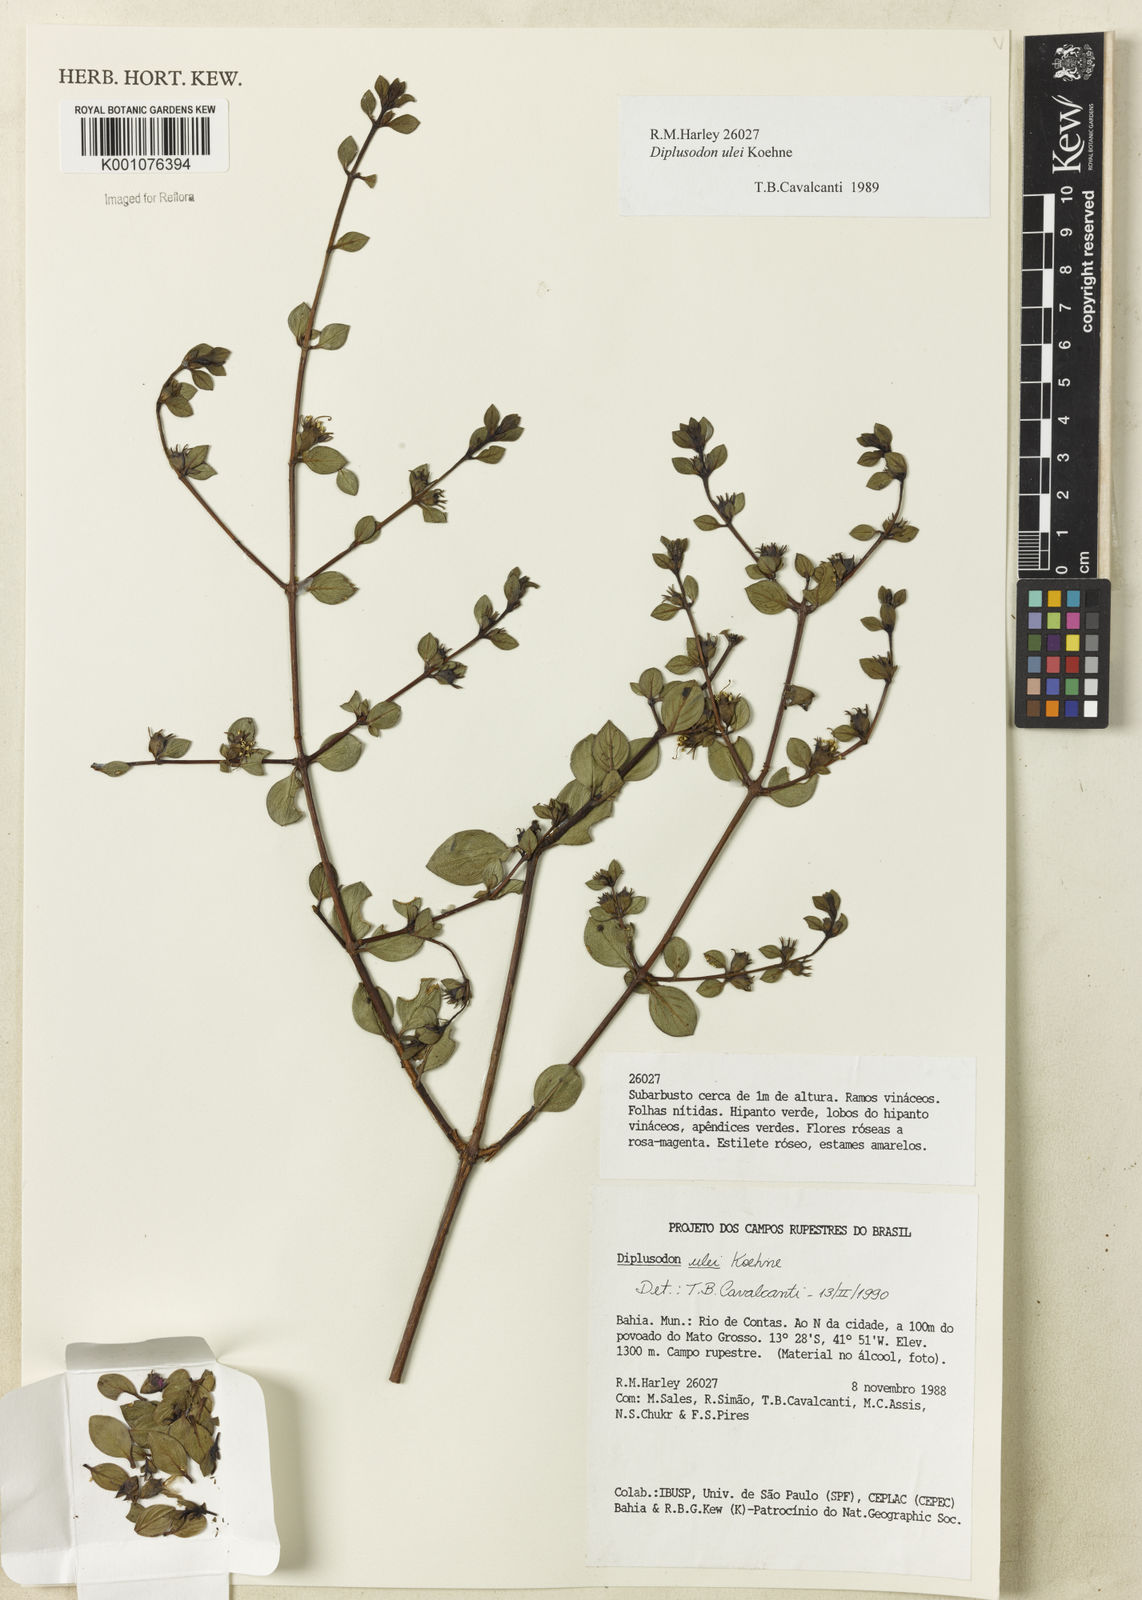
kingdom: Plantae
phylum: Tracheophyta
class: Magnoliopsida
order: Myrtales
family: Lythraceae
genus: Diplusodon
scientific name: Diplusodon ulei
